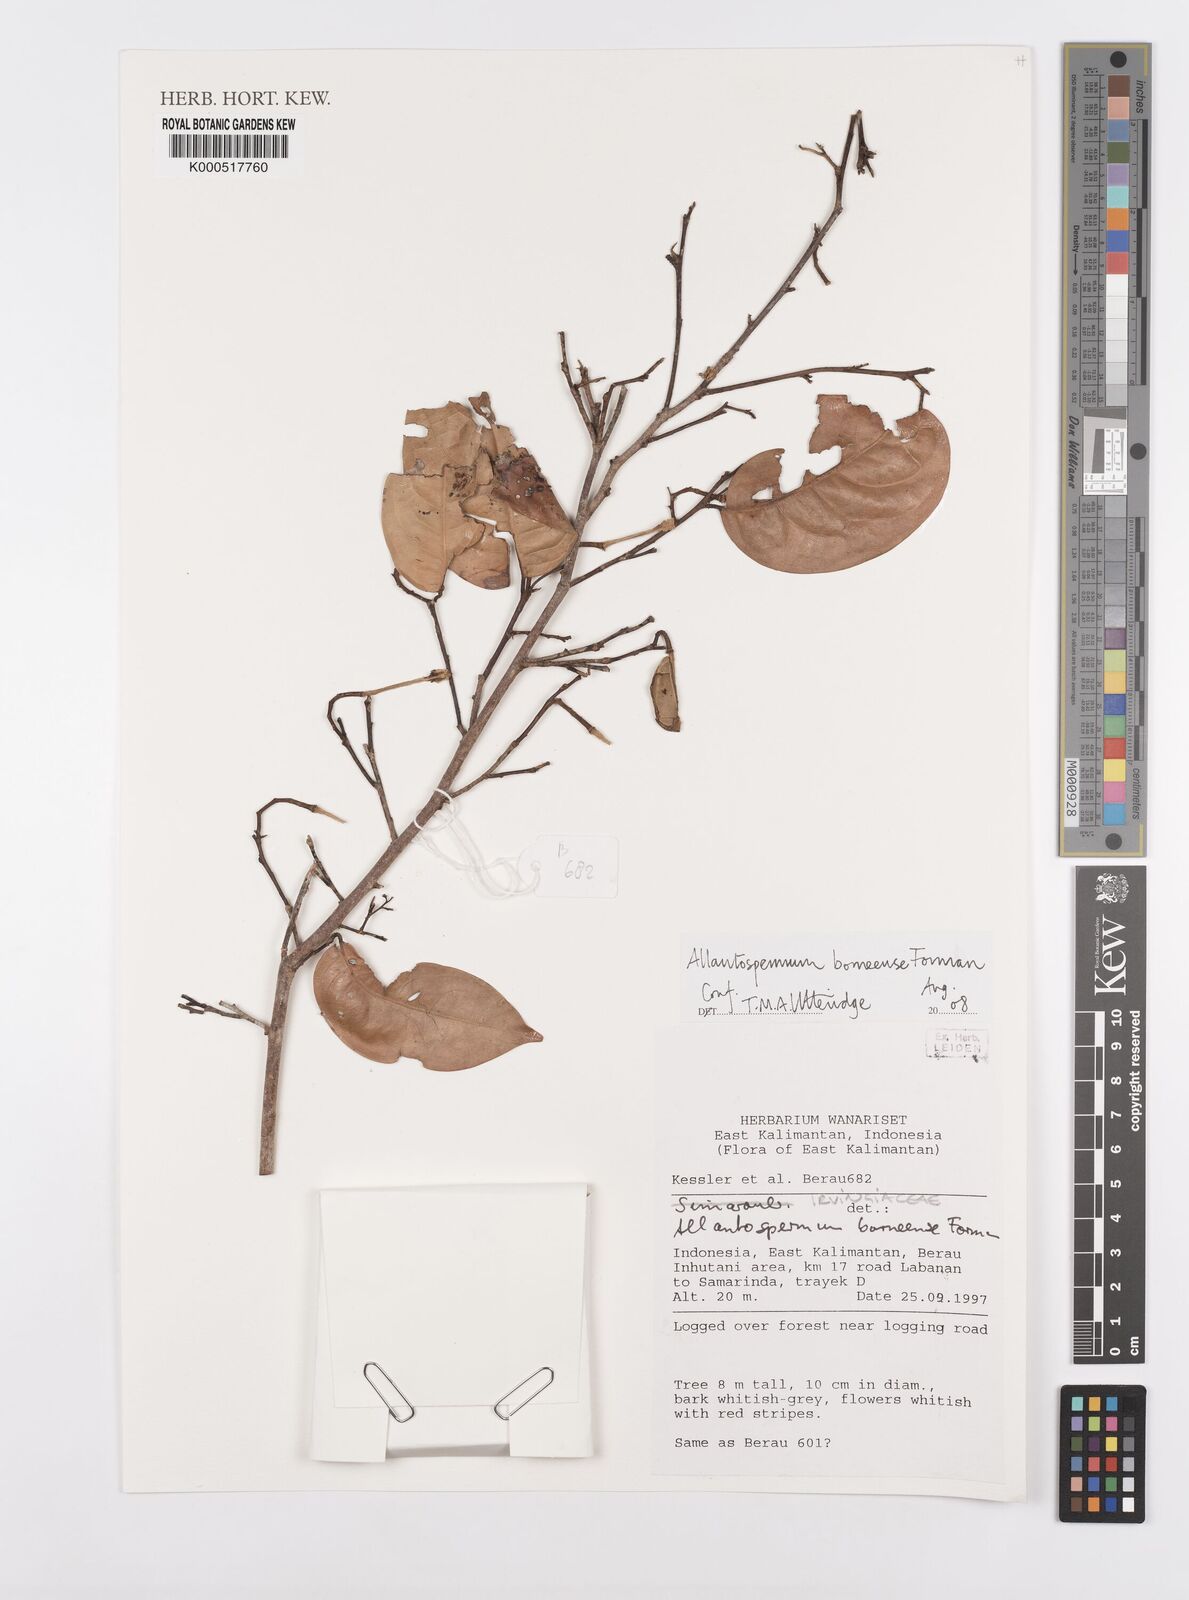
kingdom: Plantae
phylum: Tracheophyta
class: Magnoliopsida
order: Malpighiales
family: Ixonanthaceae
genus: Allantospermum
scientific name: Allantospermum borneense
